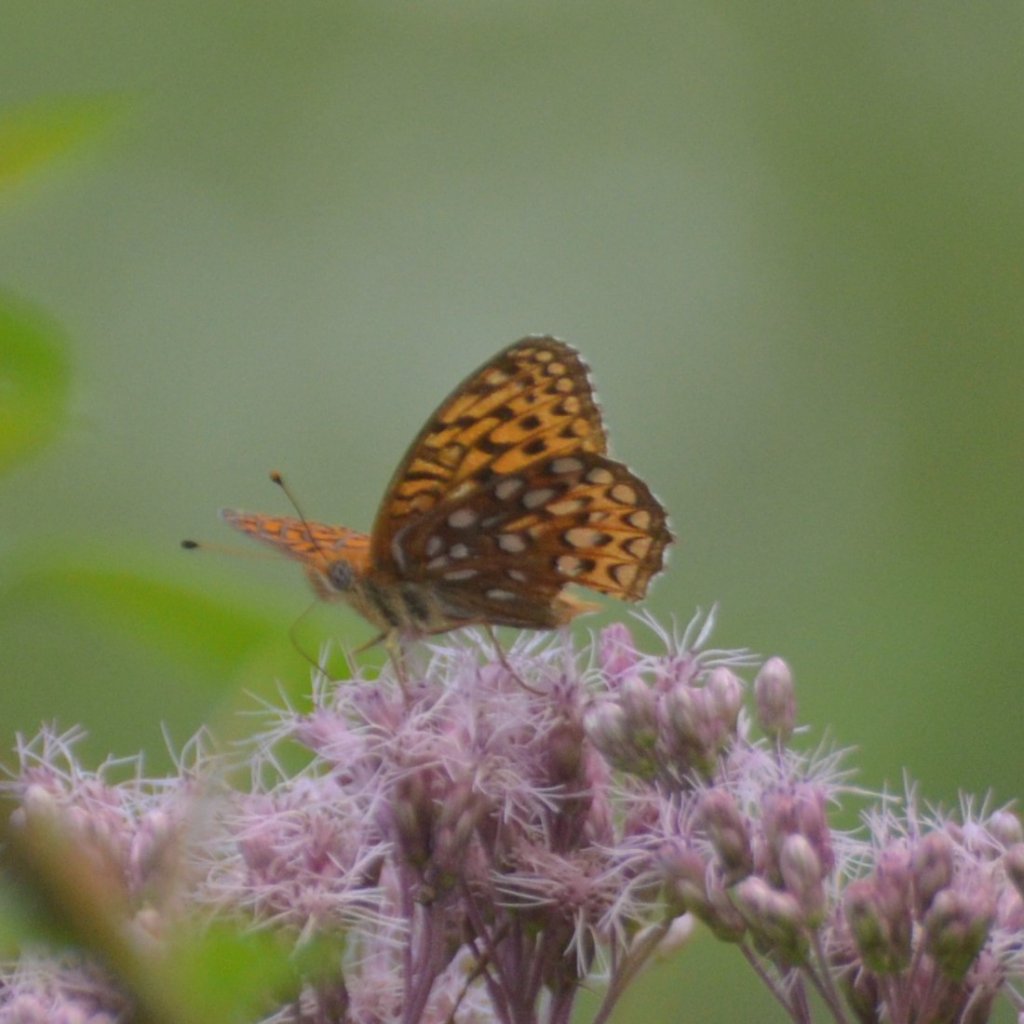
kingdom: Animalia
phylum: Arthropoda
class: Insecta
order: Lepidoptera
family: Nymphalidae
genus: Speyeria
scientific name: Speyeria atlantis
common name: Atlantis Fritillary
